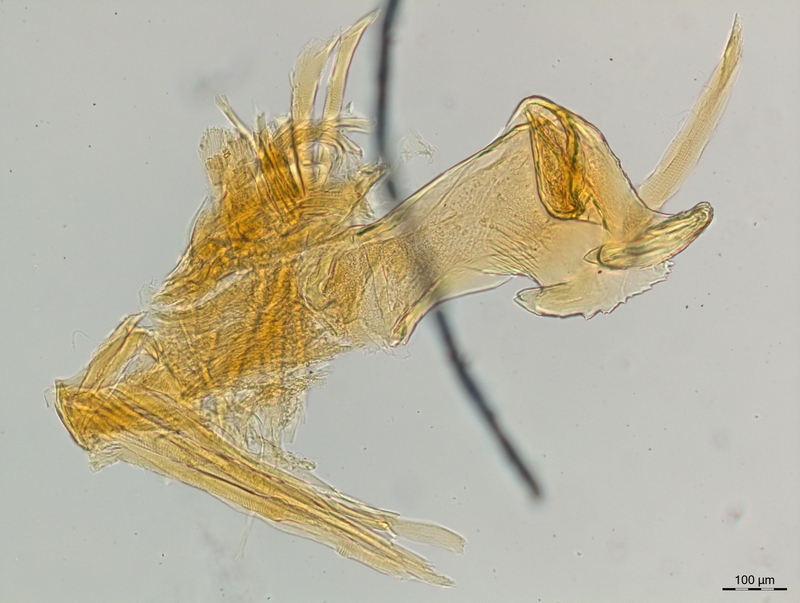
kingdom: Animalia
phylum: Arthropoda
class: Diplopoda
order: Chordeumatida
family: Craspedosomatidae
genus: Craspedosoma
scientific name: Craspedosoma rawlinsii
